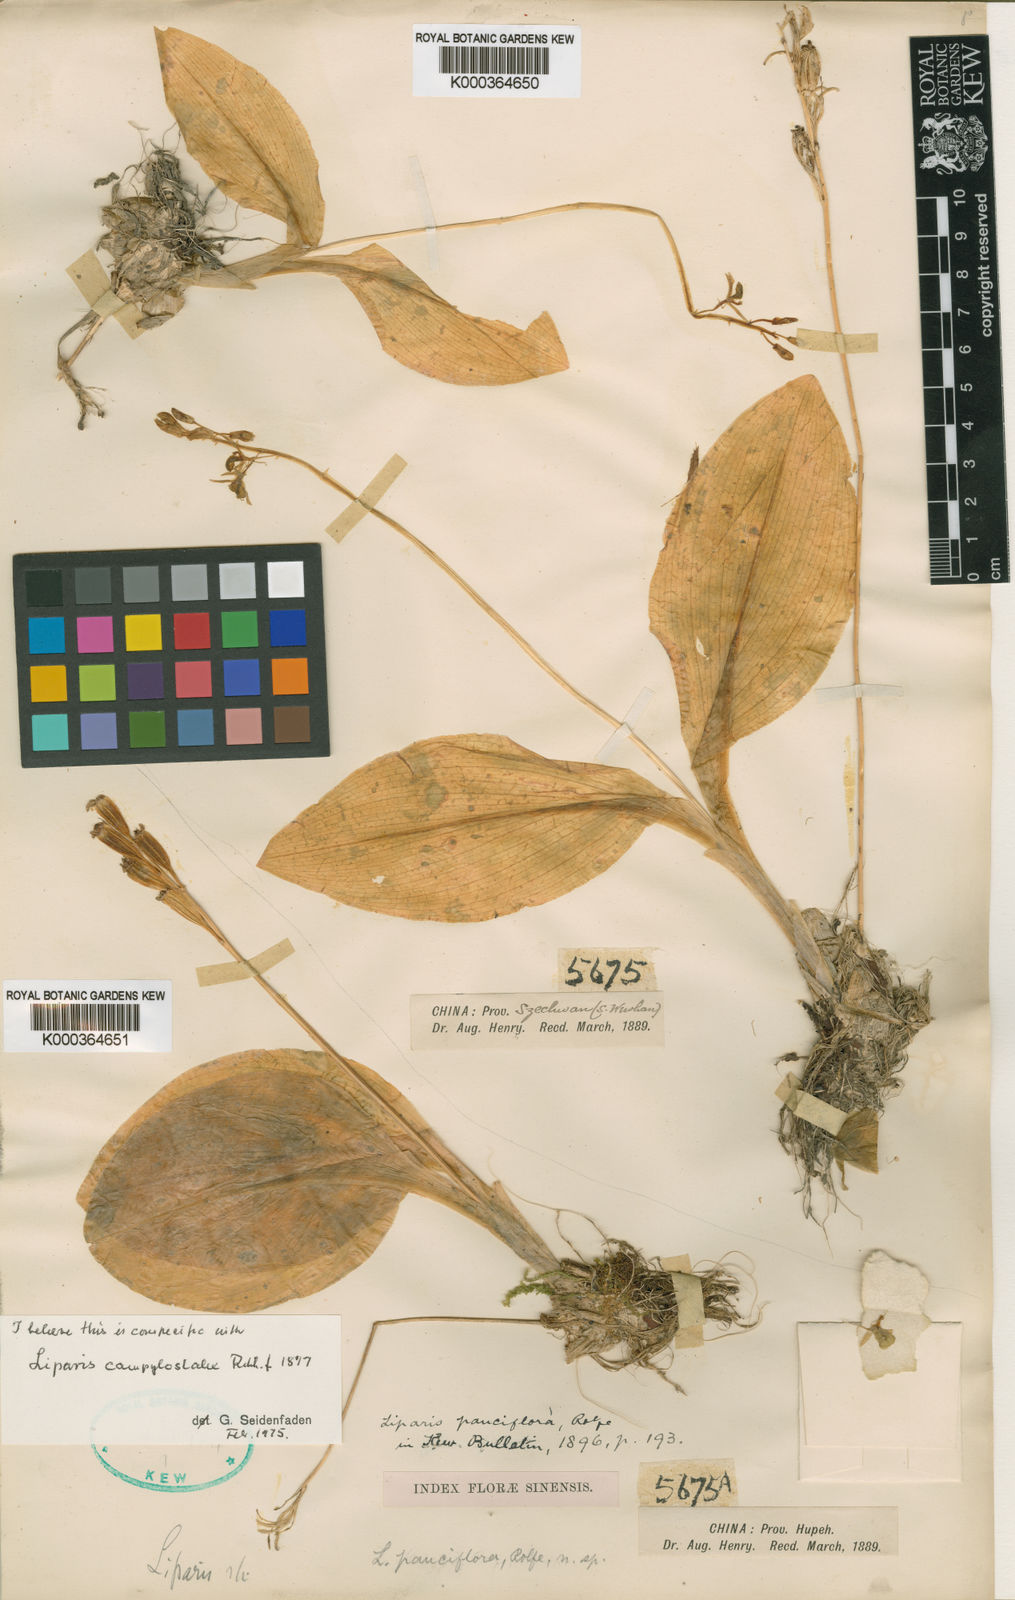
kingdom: Plantae
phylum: Tracheophyta
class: Liliopsida
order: Asparagales
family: Orchidaceae
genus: Liparis
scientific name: Liparis campylostalix
